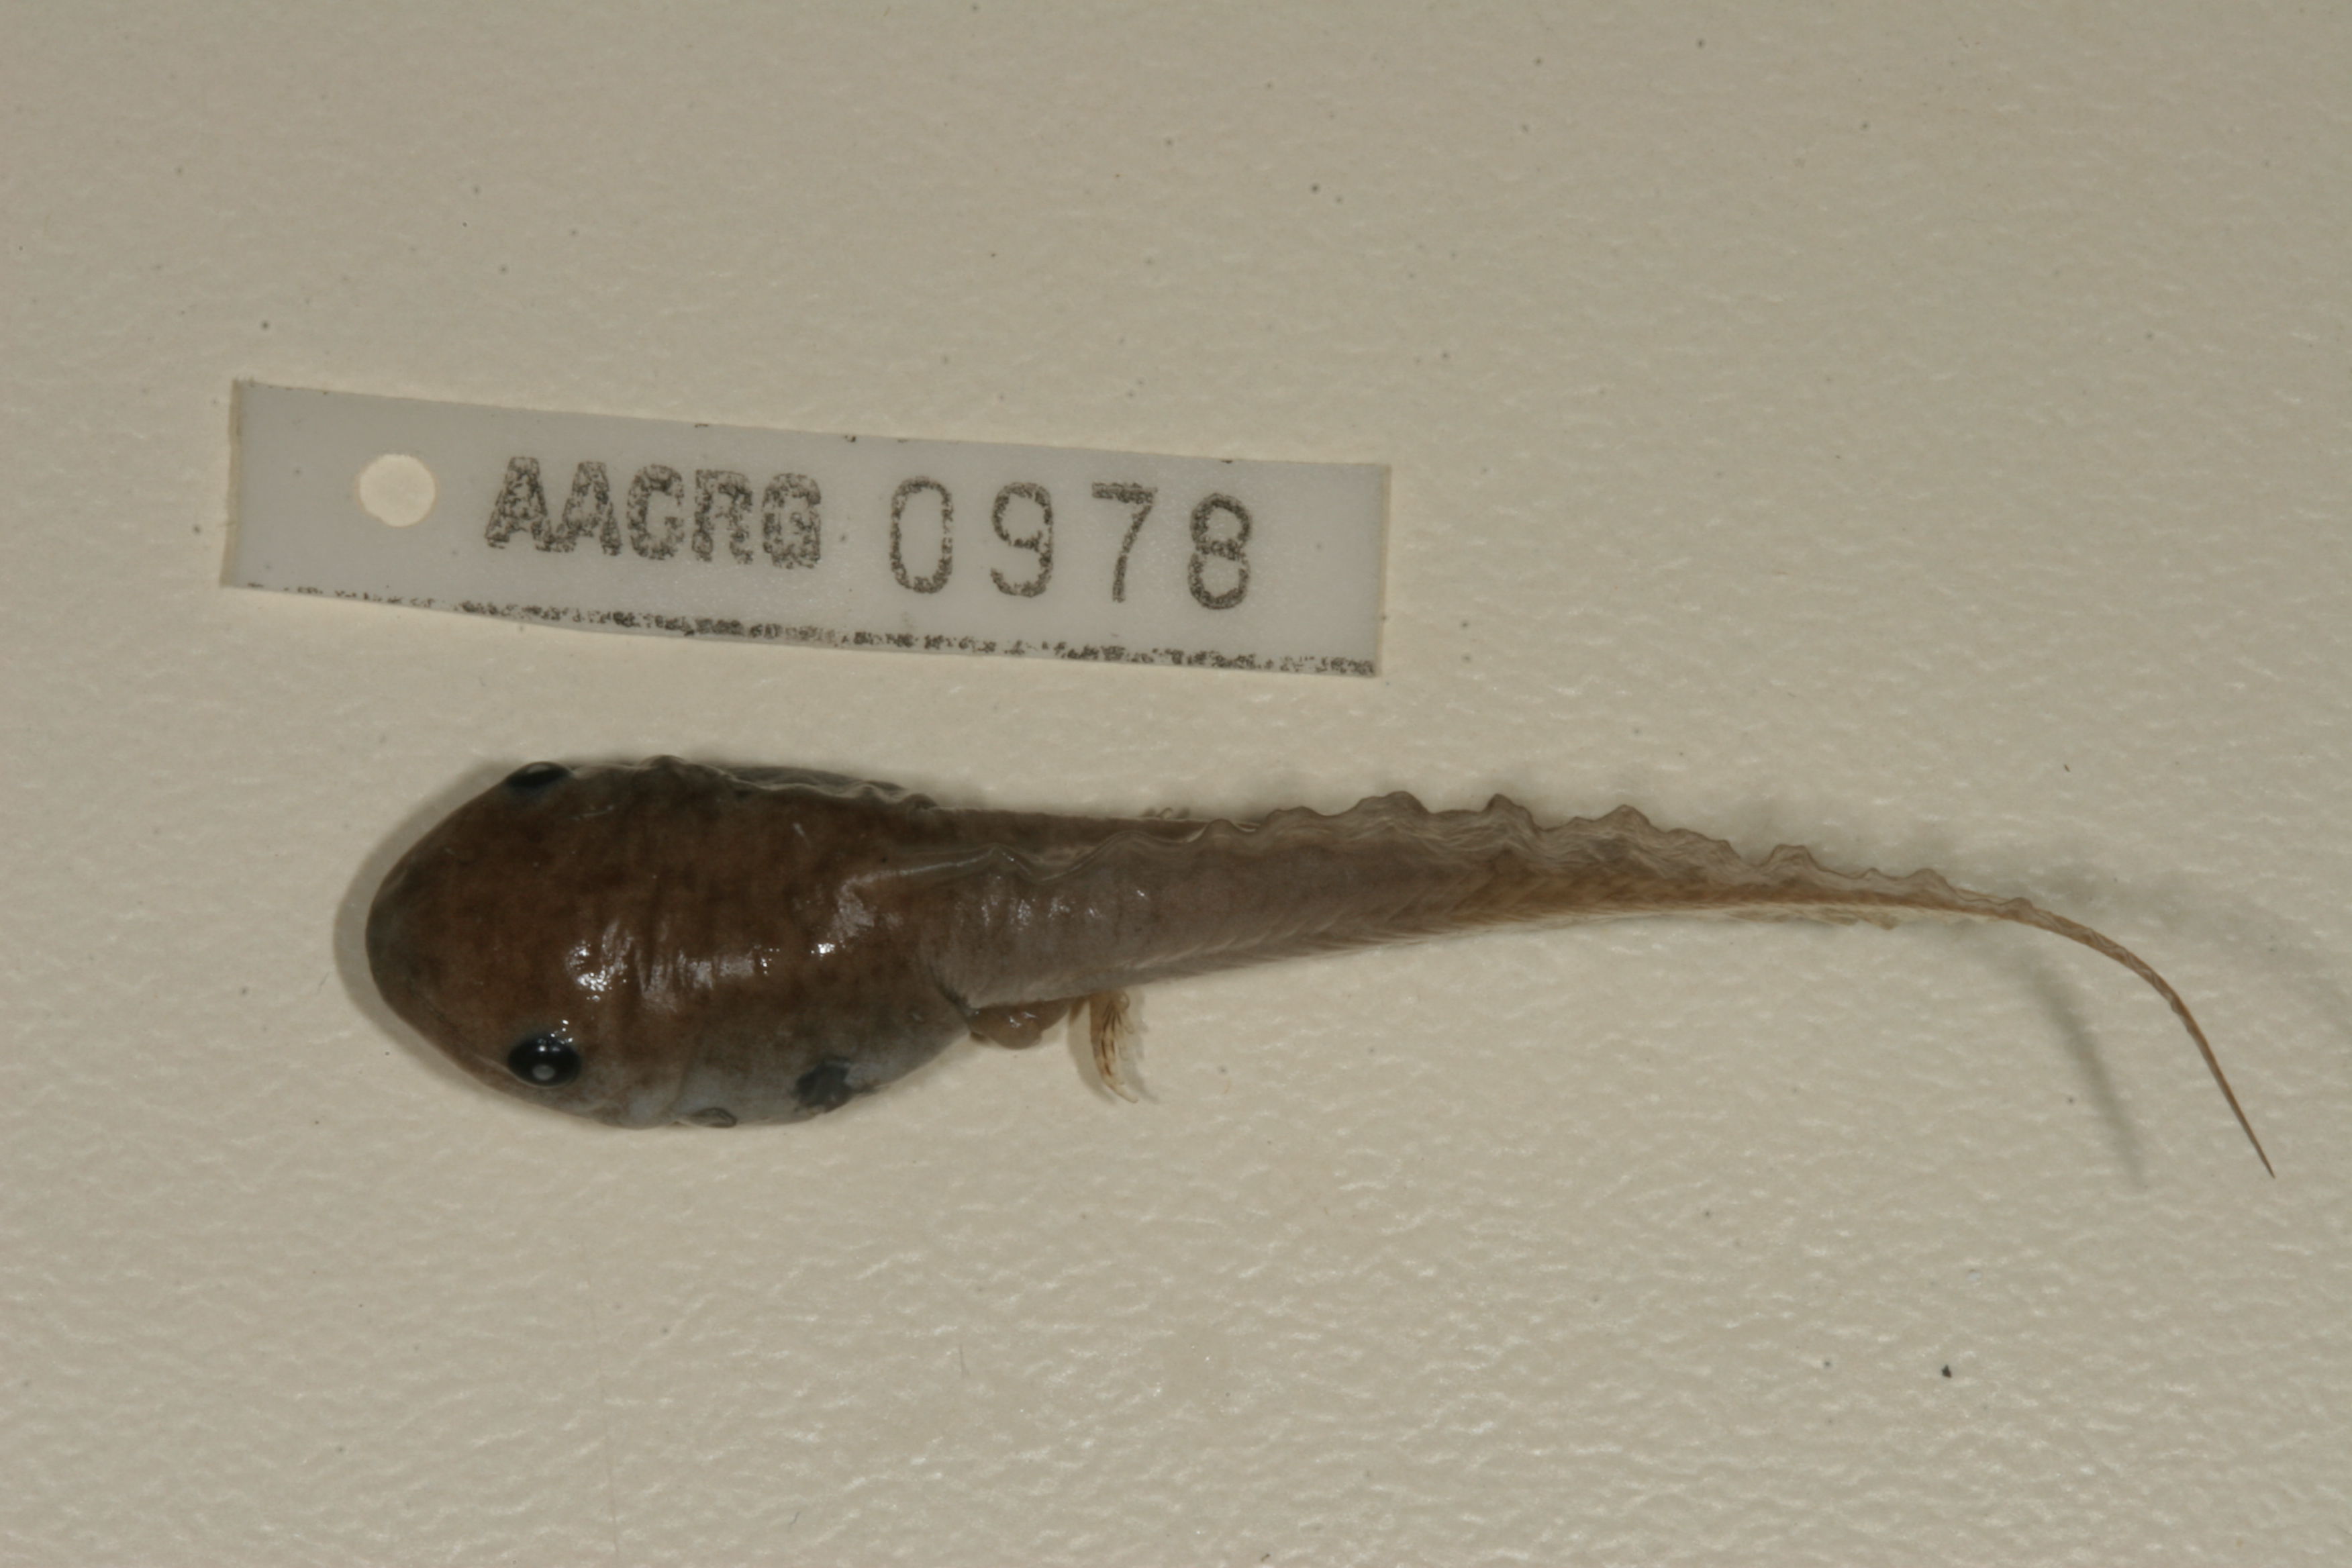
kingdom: Animalia
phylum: Chordata
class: Amphibia
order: Anura
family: Hemisotidae
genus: Hemisus
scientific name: Hemisus marmoratus
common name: Mottled shovel-nosed frog
